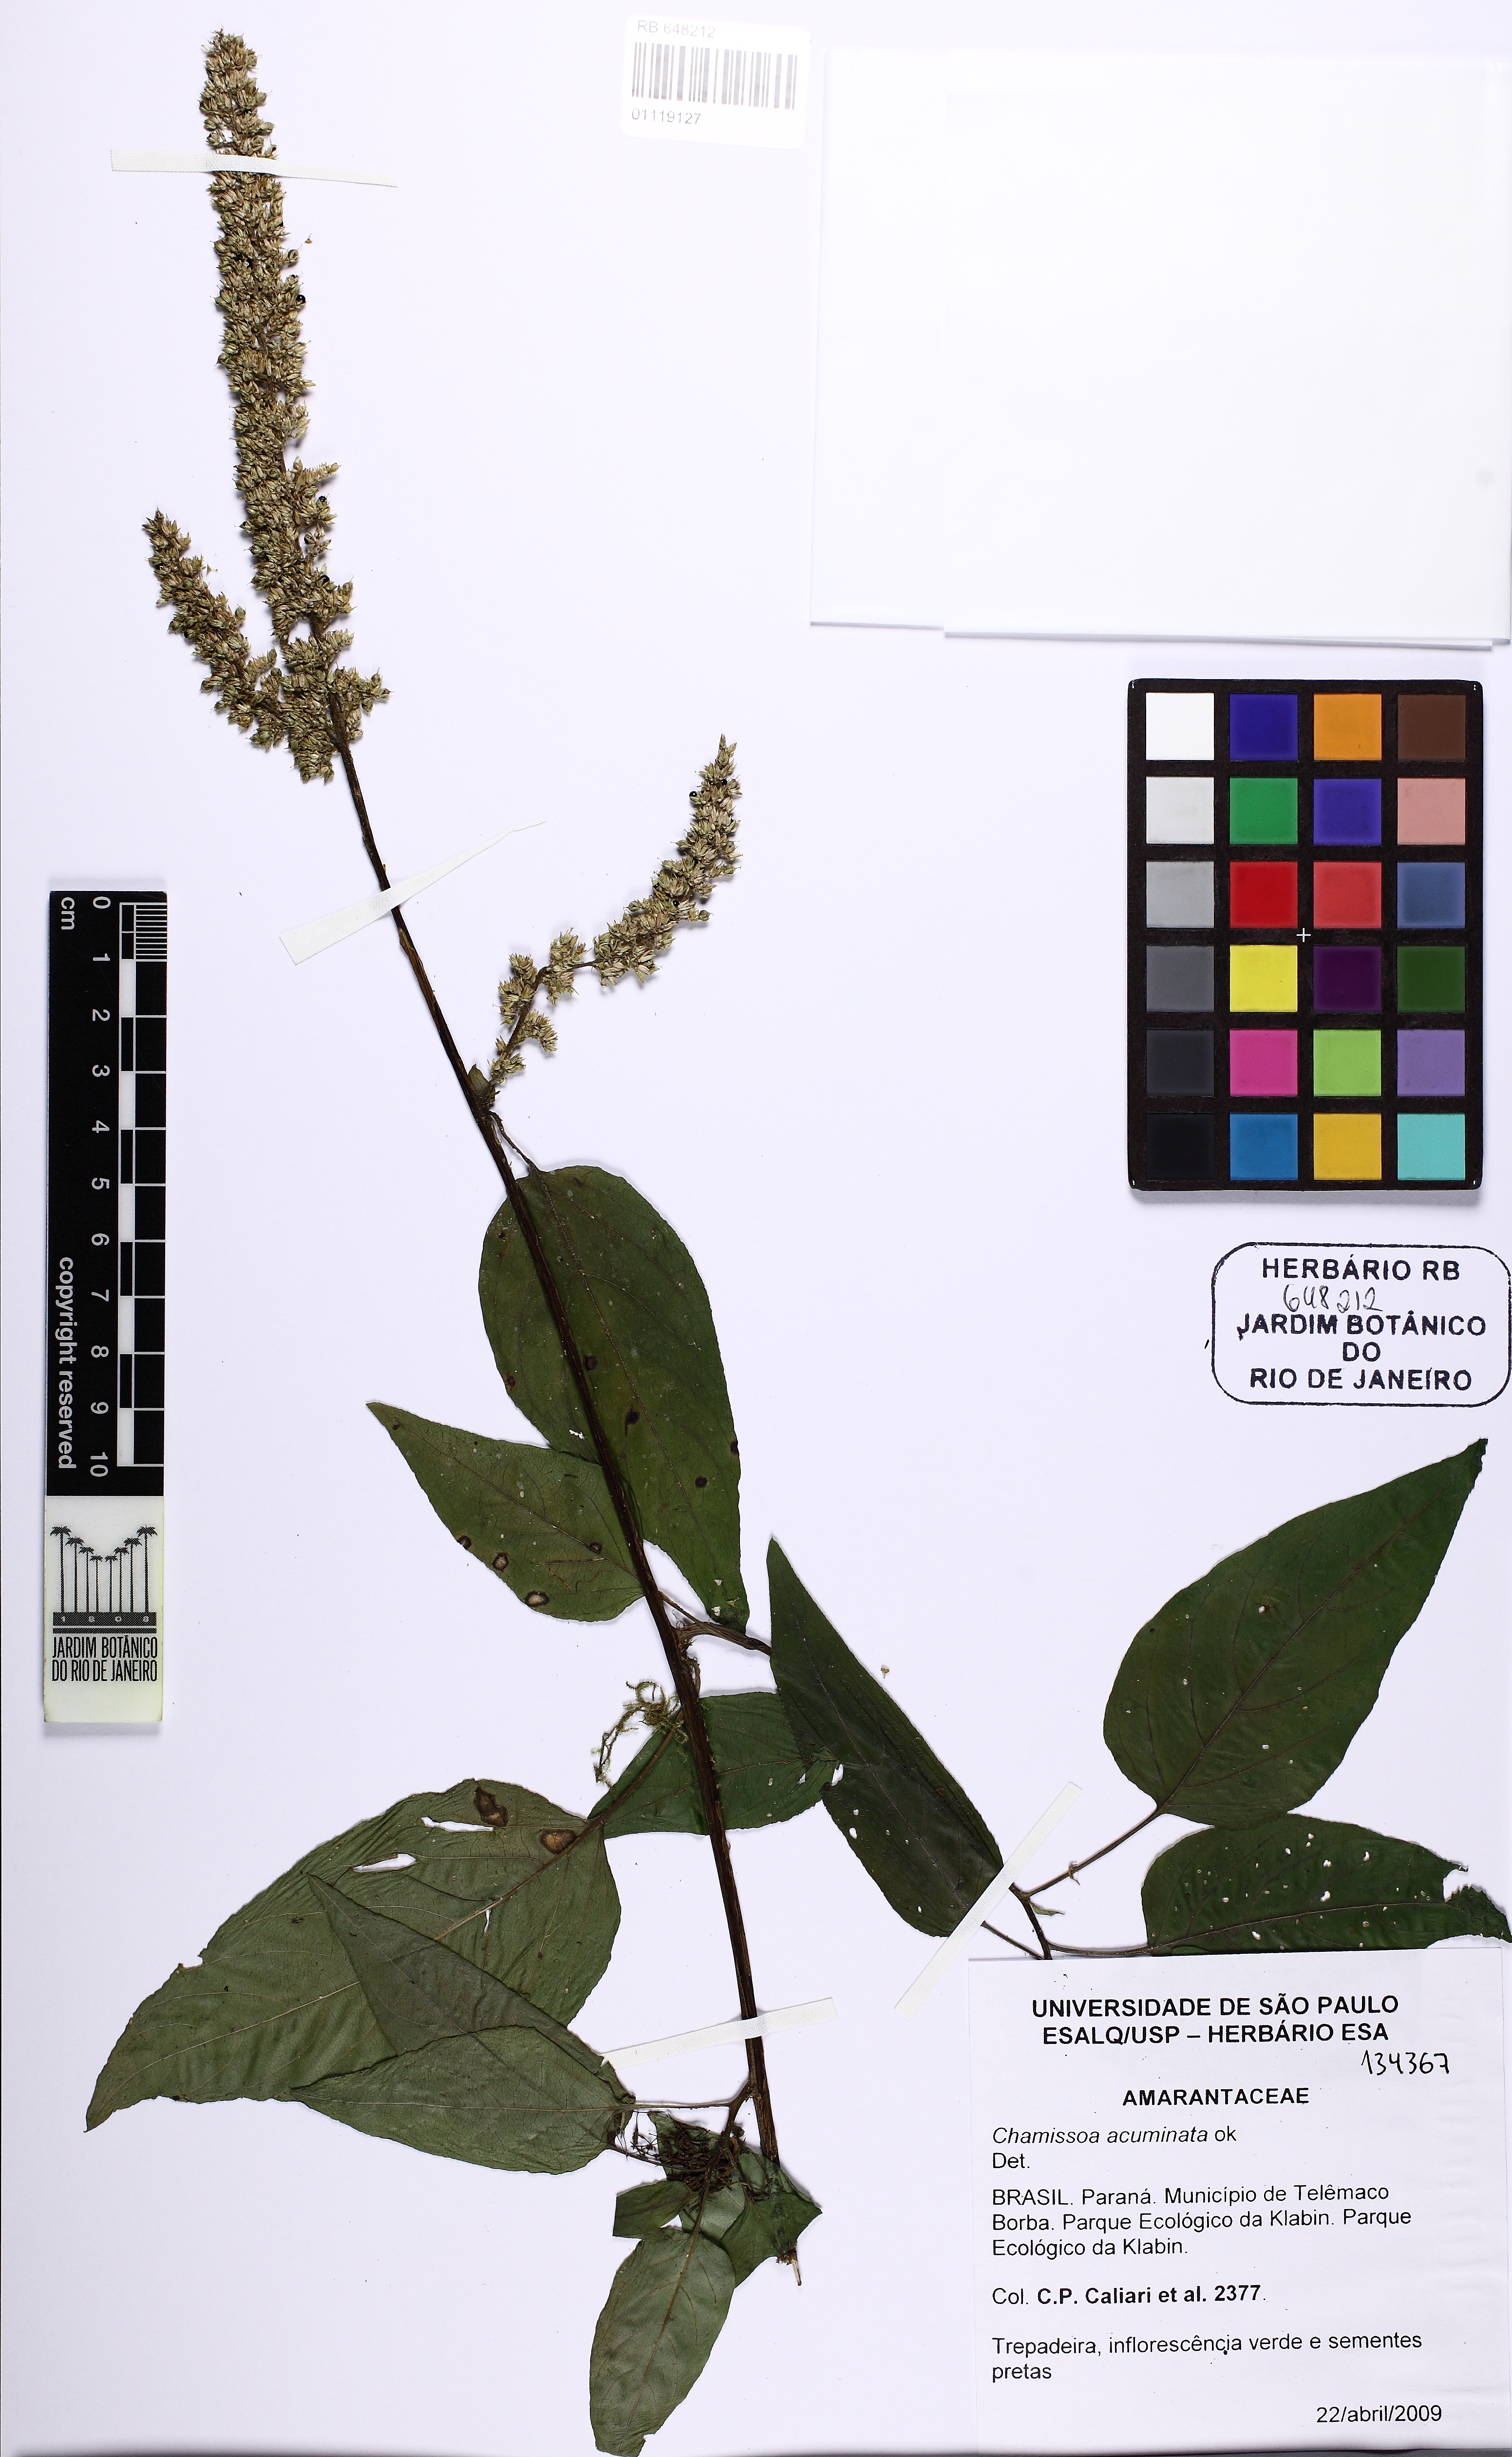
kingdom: Plantae
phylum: Tracheophyta
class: Magnoliopsida
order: Caryophyllales
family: Amaranthaceae
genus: Chamissoa
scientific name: Chamissoa acuminata
